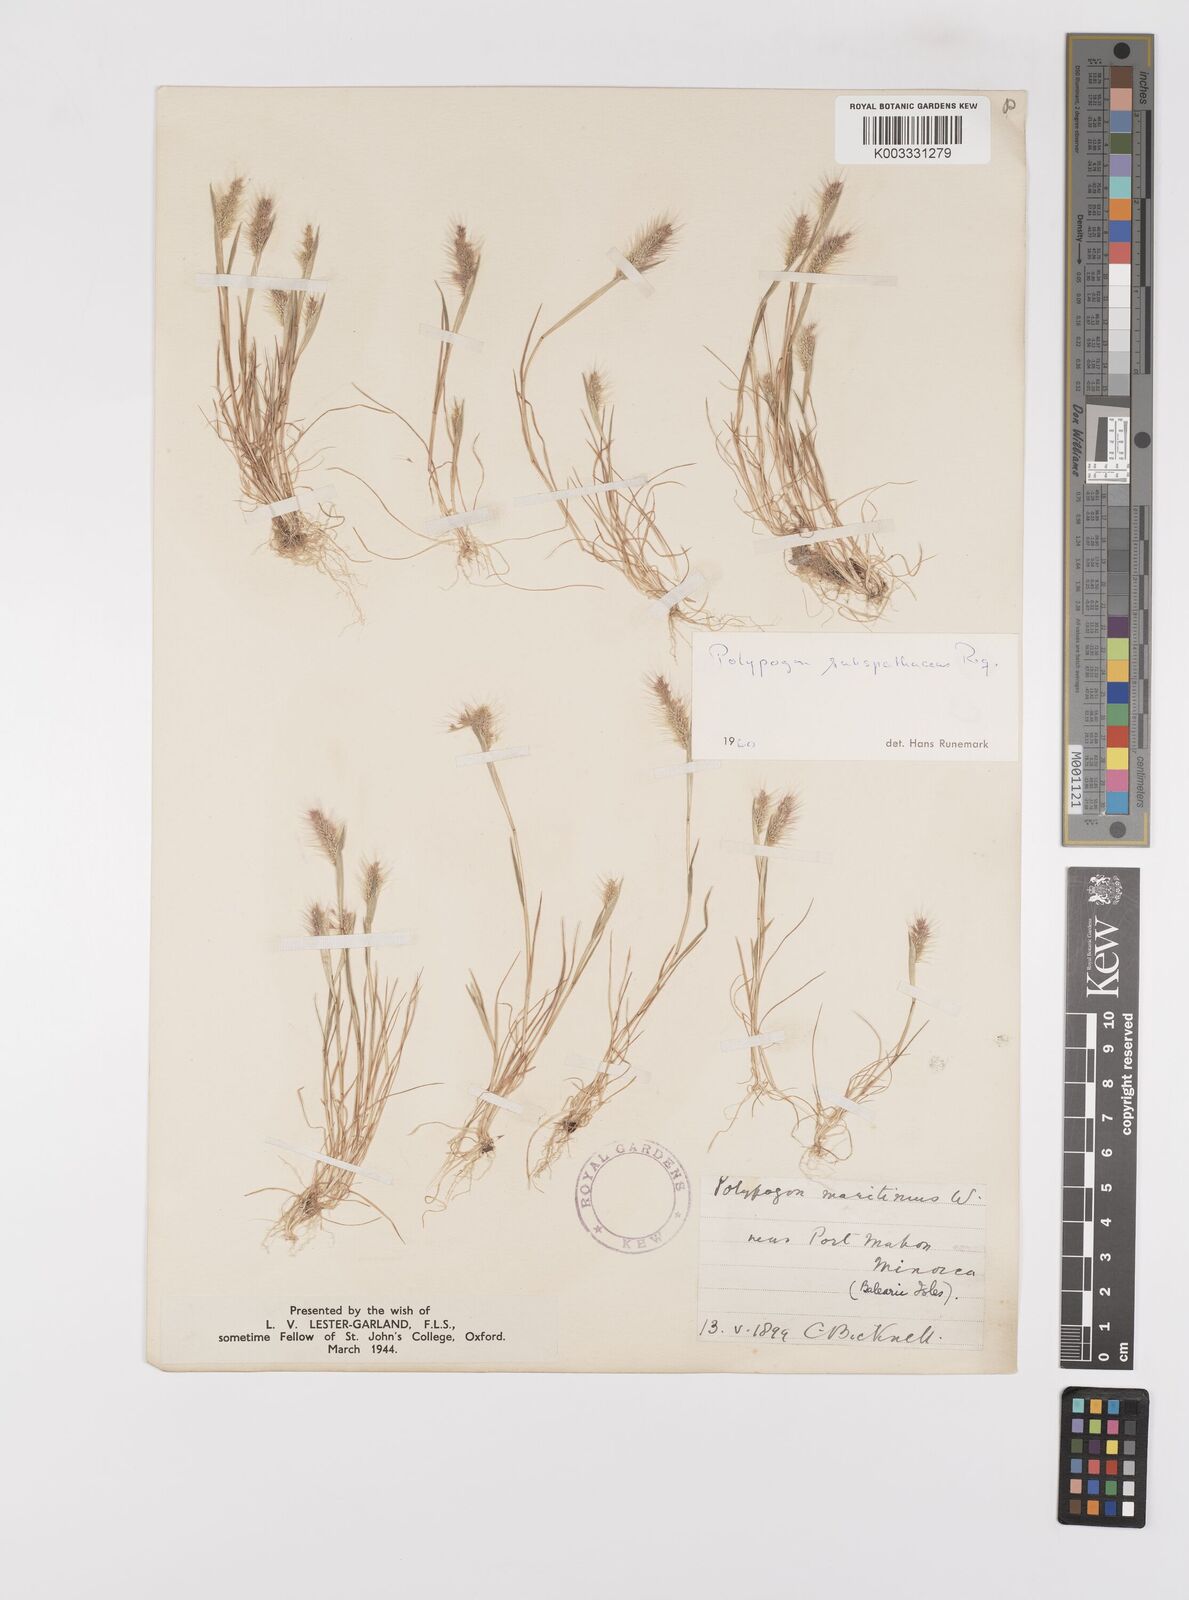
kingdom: Plantae
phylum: Tracheophyta
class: Liliopsida
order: Poales
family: Poaceae
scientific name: Poaceae
